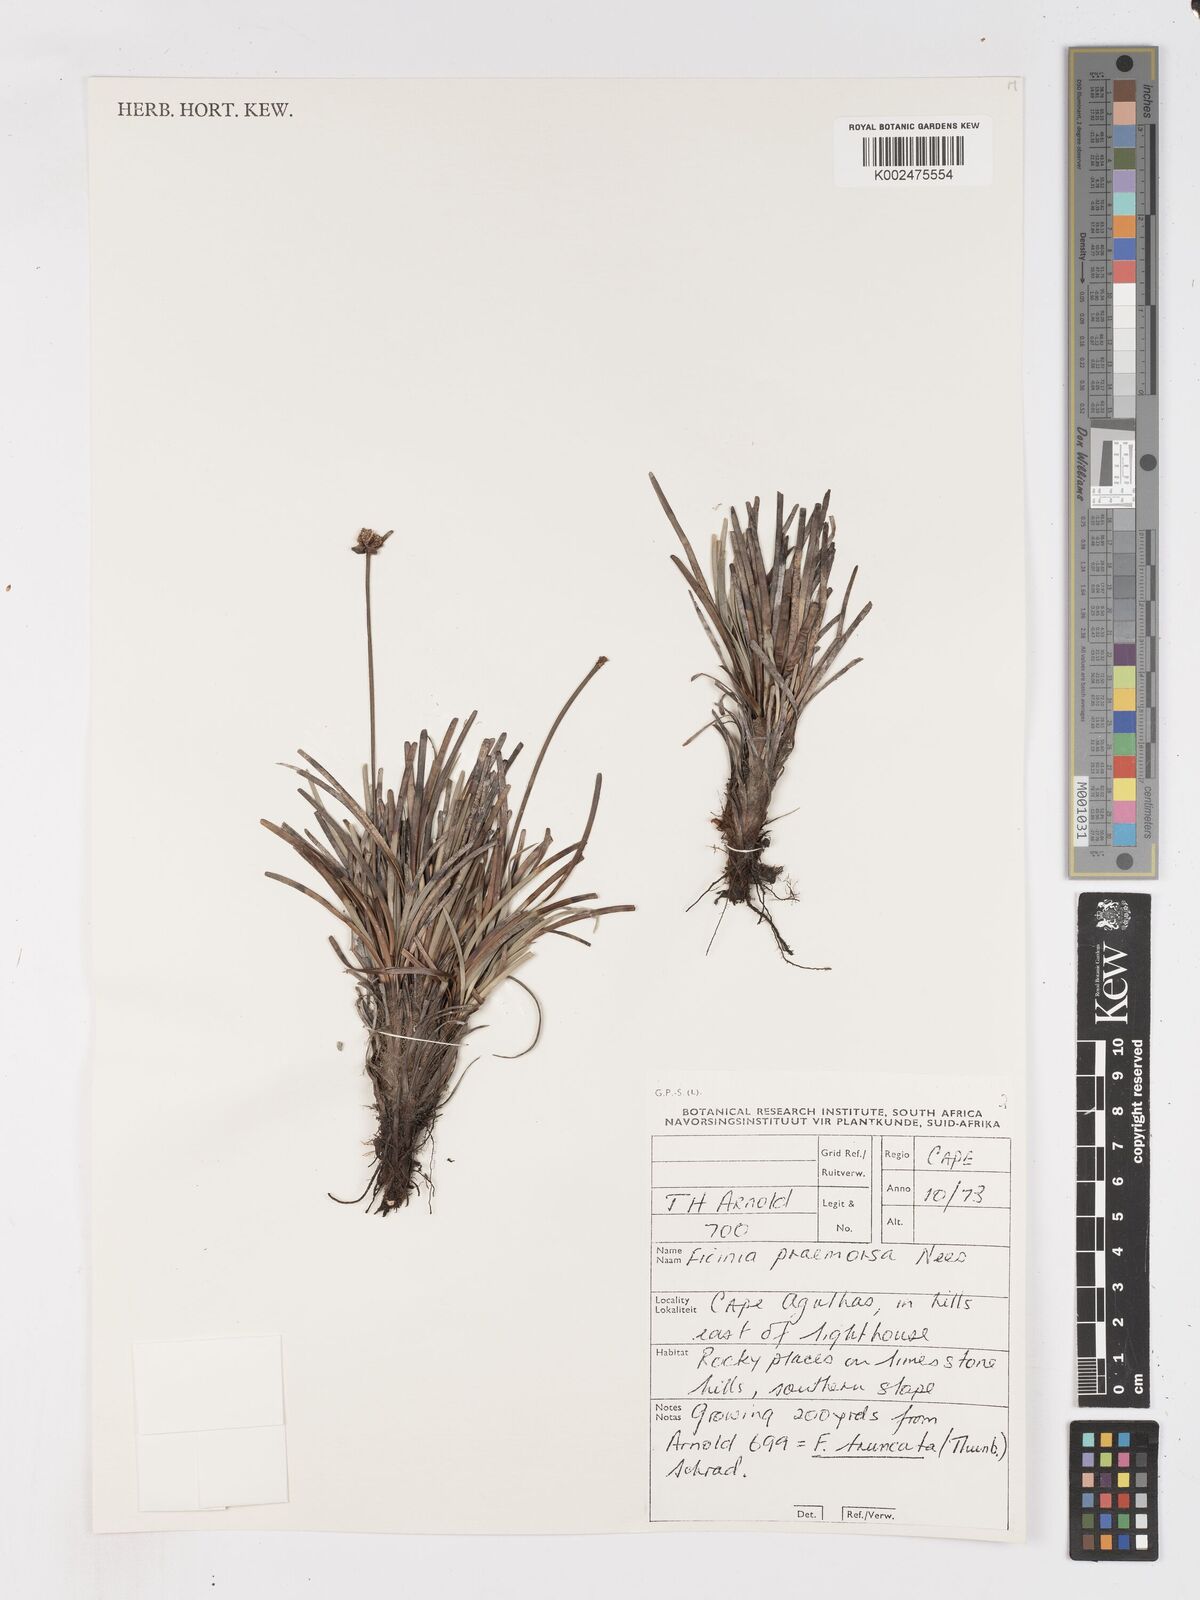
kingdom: Plantae
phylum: Tracheophyta
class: Liliopsida
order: Poales
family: Cyperaceae
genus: Ficinia
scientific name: Ficinia praemorsa
